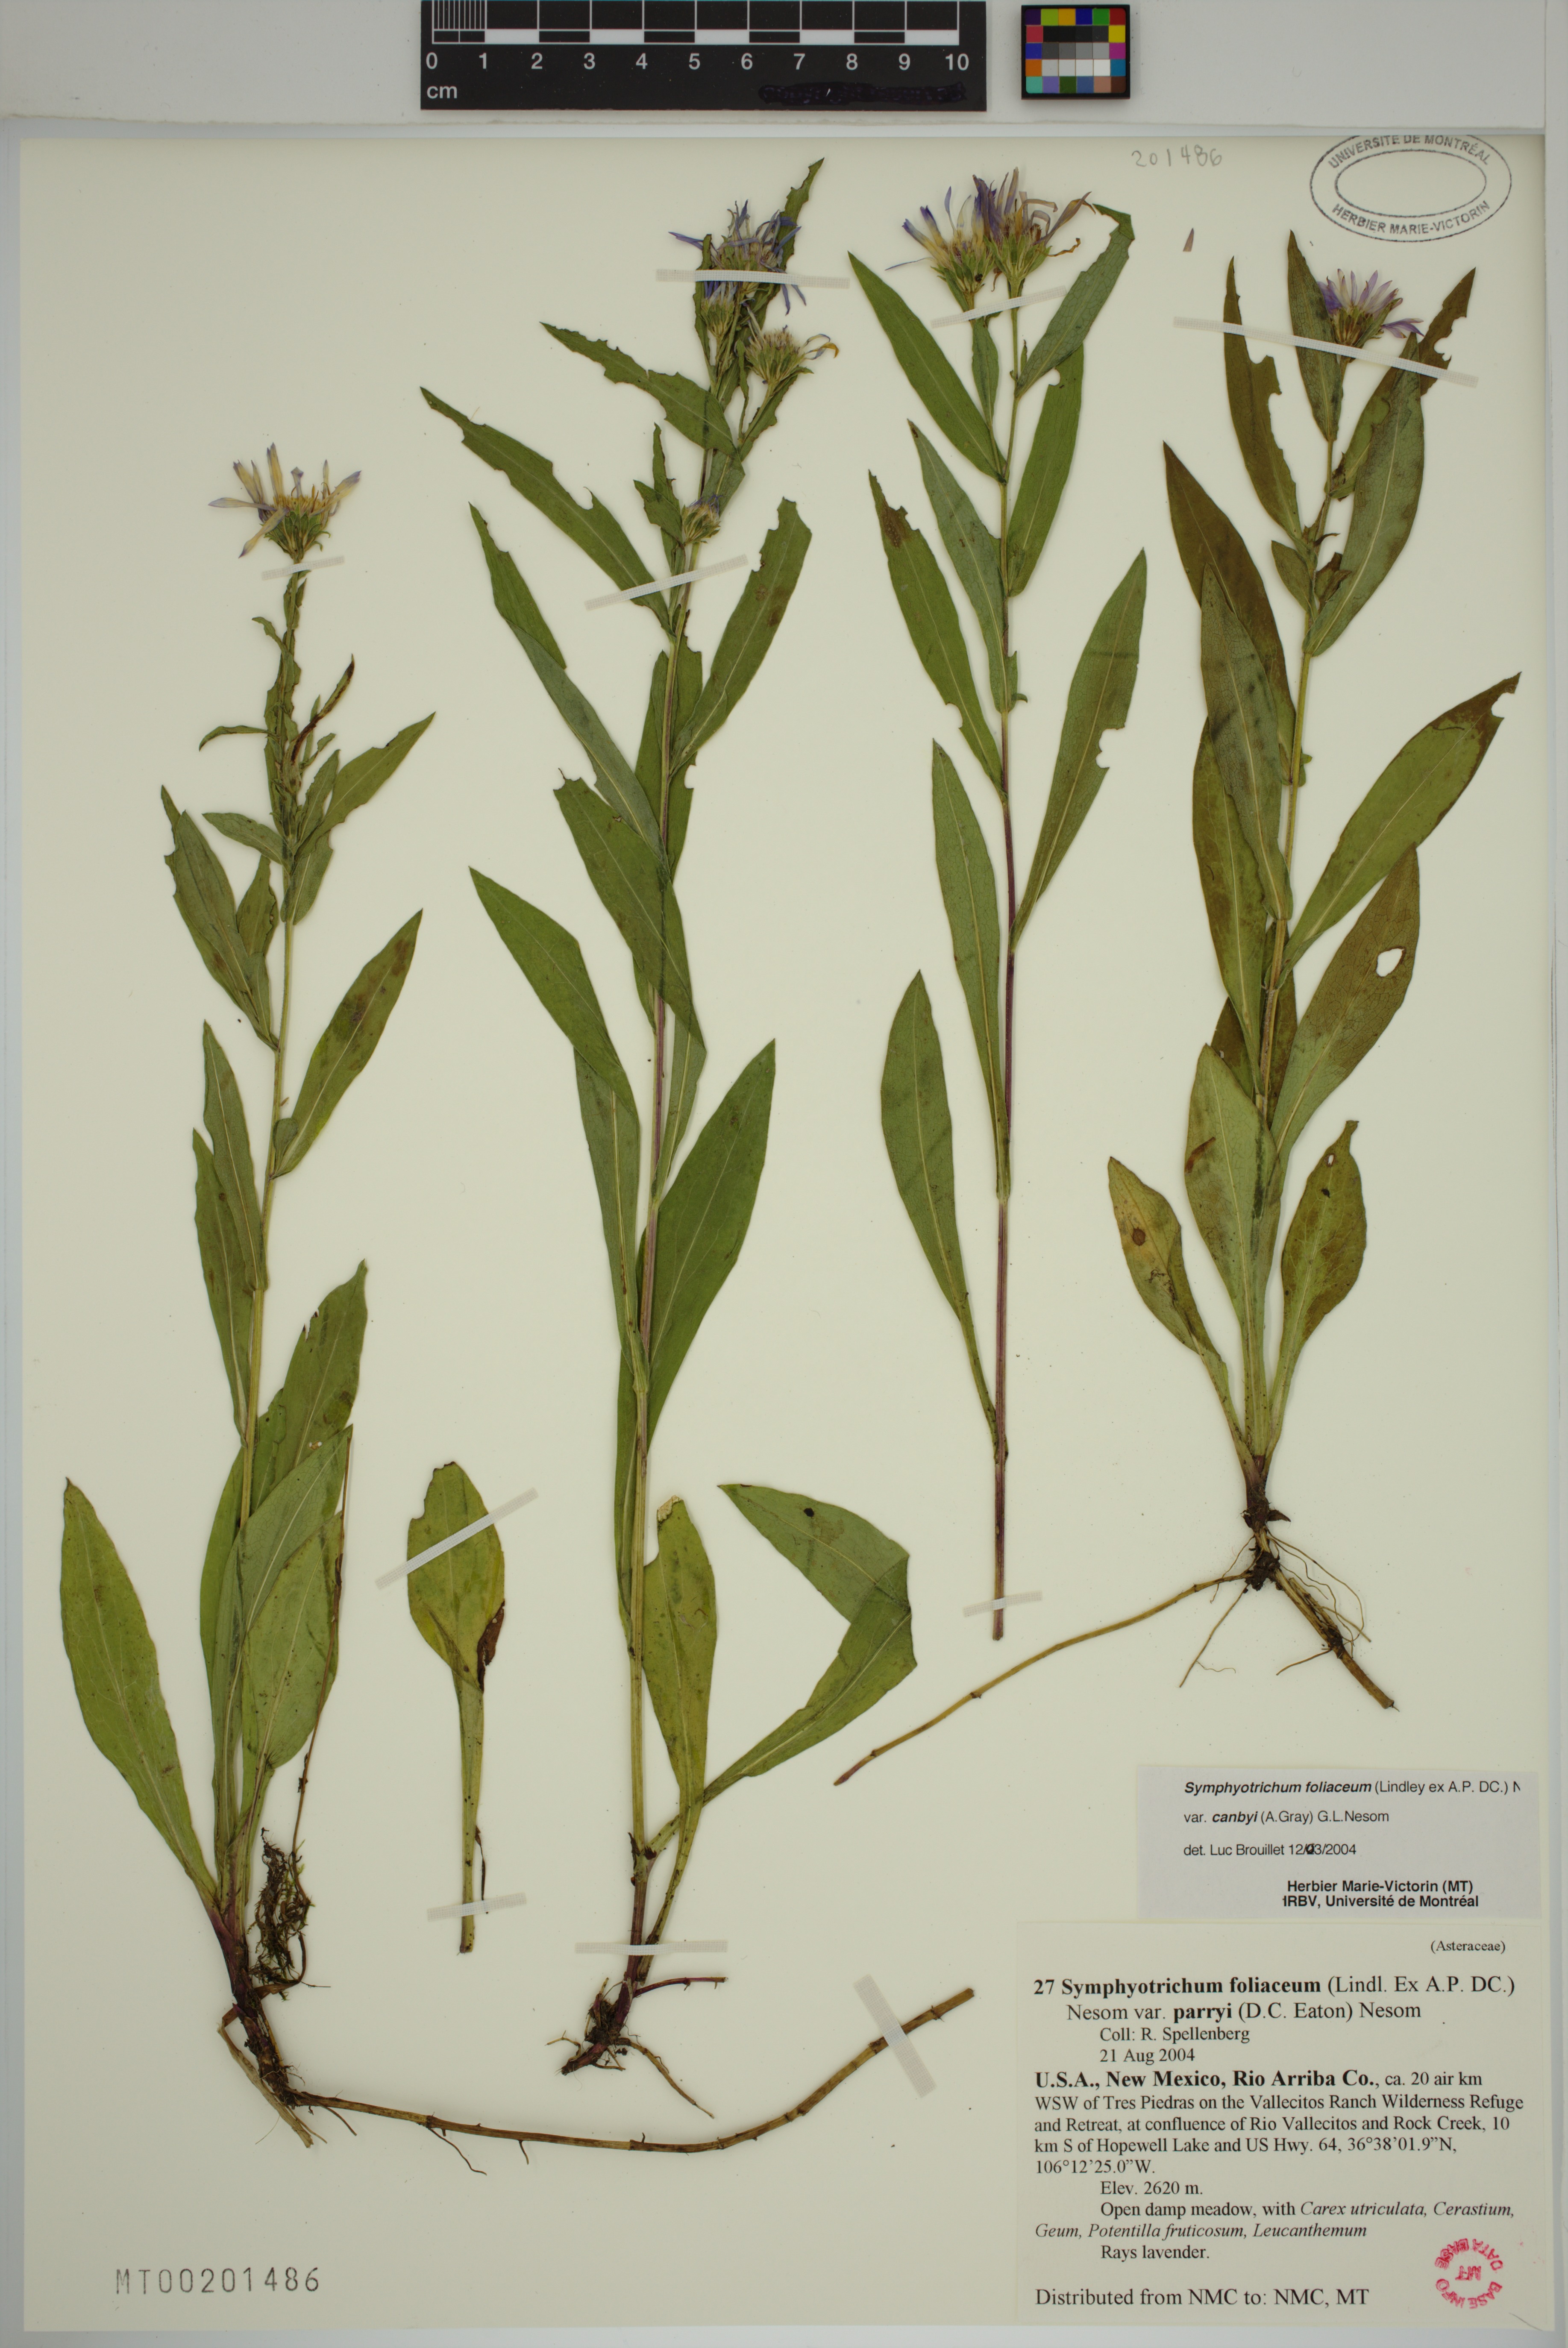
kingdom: Plantae
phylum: Tracheophyta
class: Magnoliopsida
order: Asterales
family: Asteraceae
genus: Symphyotrichum
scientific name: Symphyotrichum foliaceum
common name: Leafy aster
